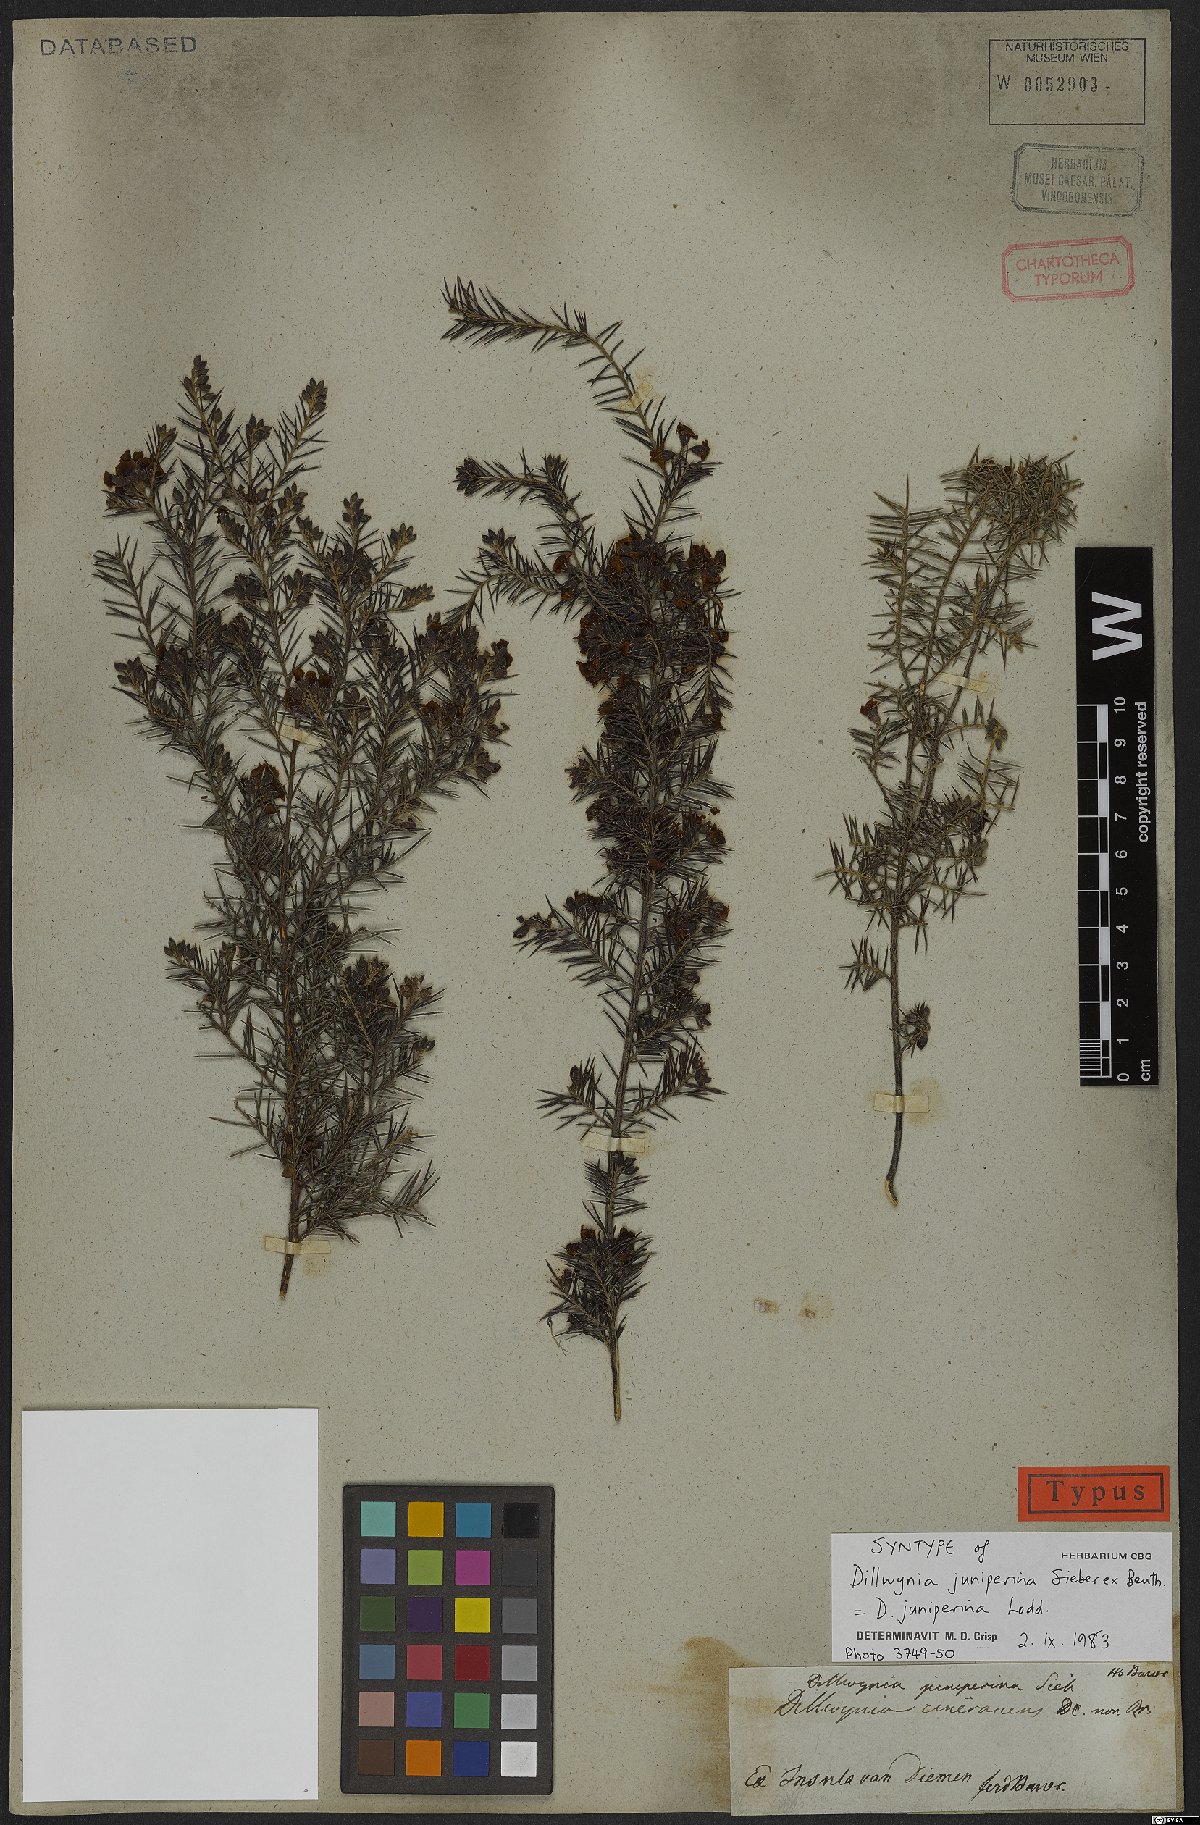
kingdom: Plantae
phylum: Tracheophyta
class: Magnoliopsida
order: Fabales
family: Fabaceae
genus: Dillwynia
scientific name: Dillwynia juniperina
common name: Prickly parrot pea
